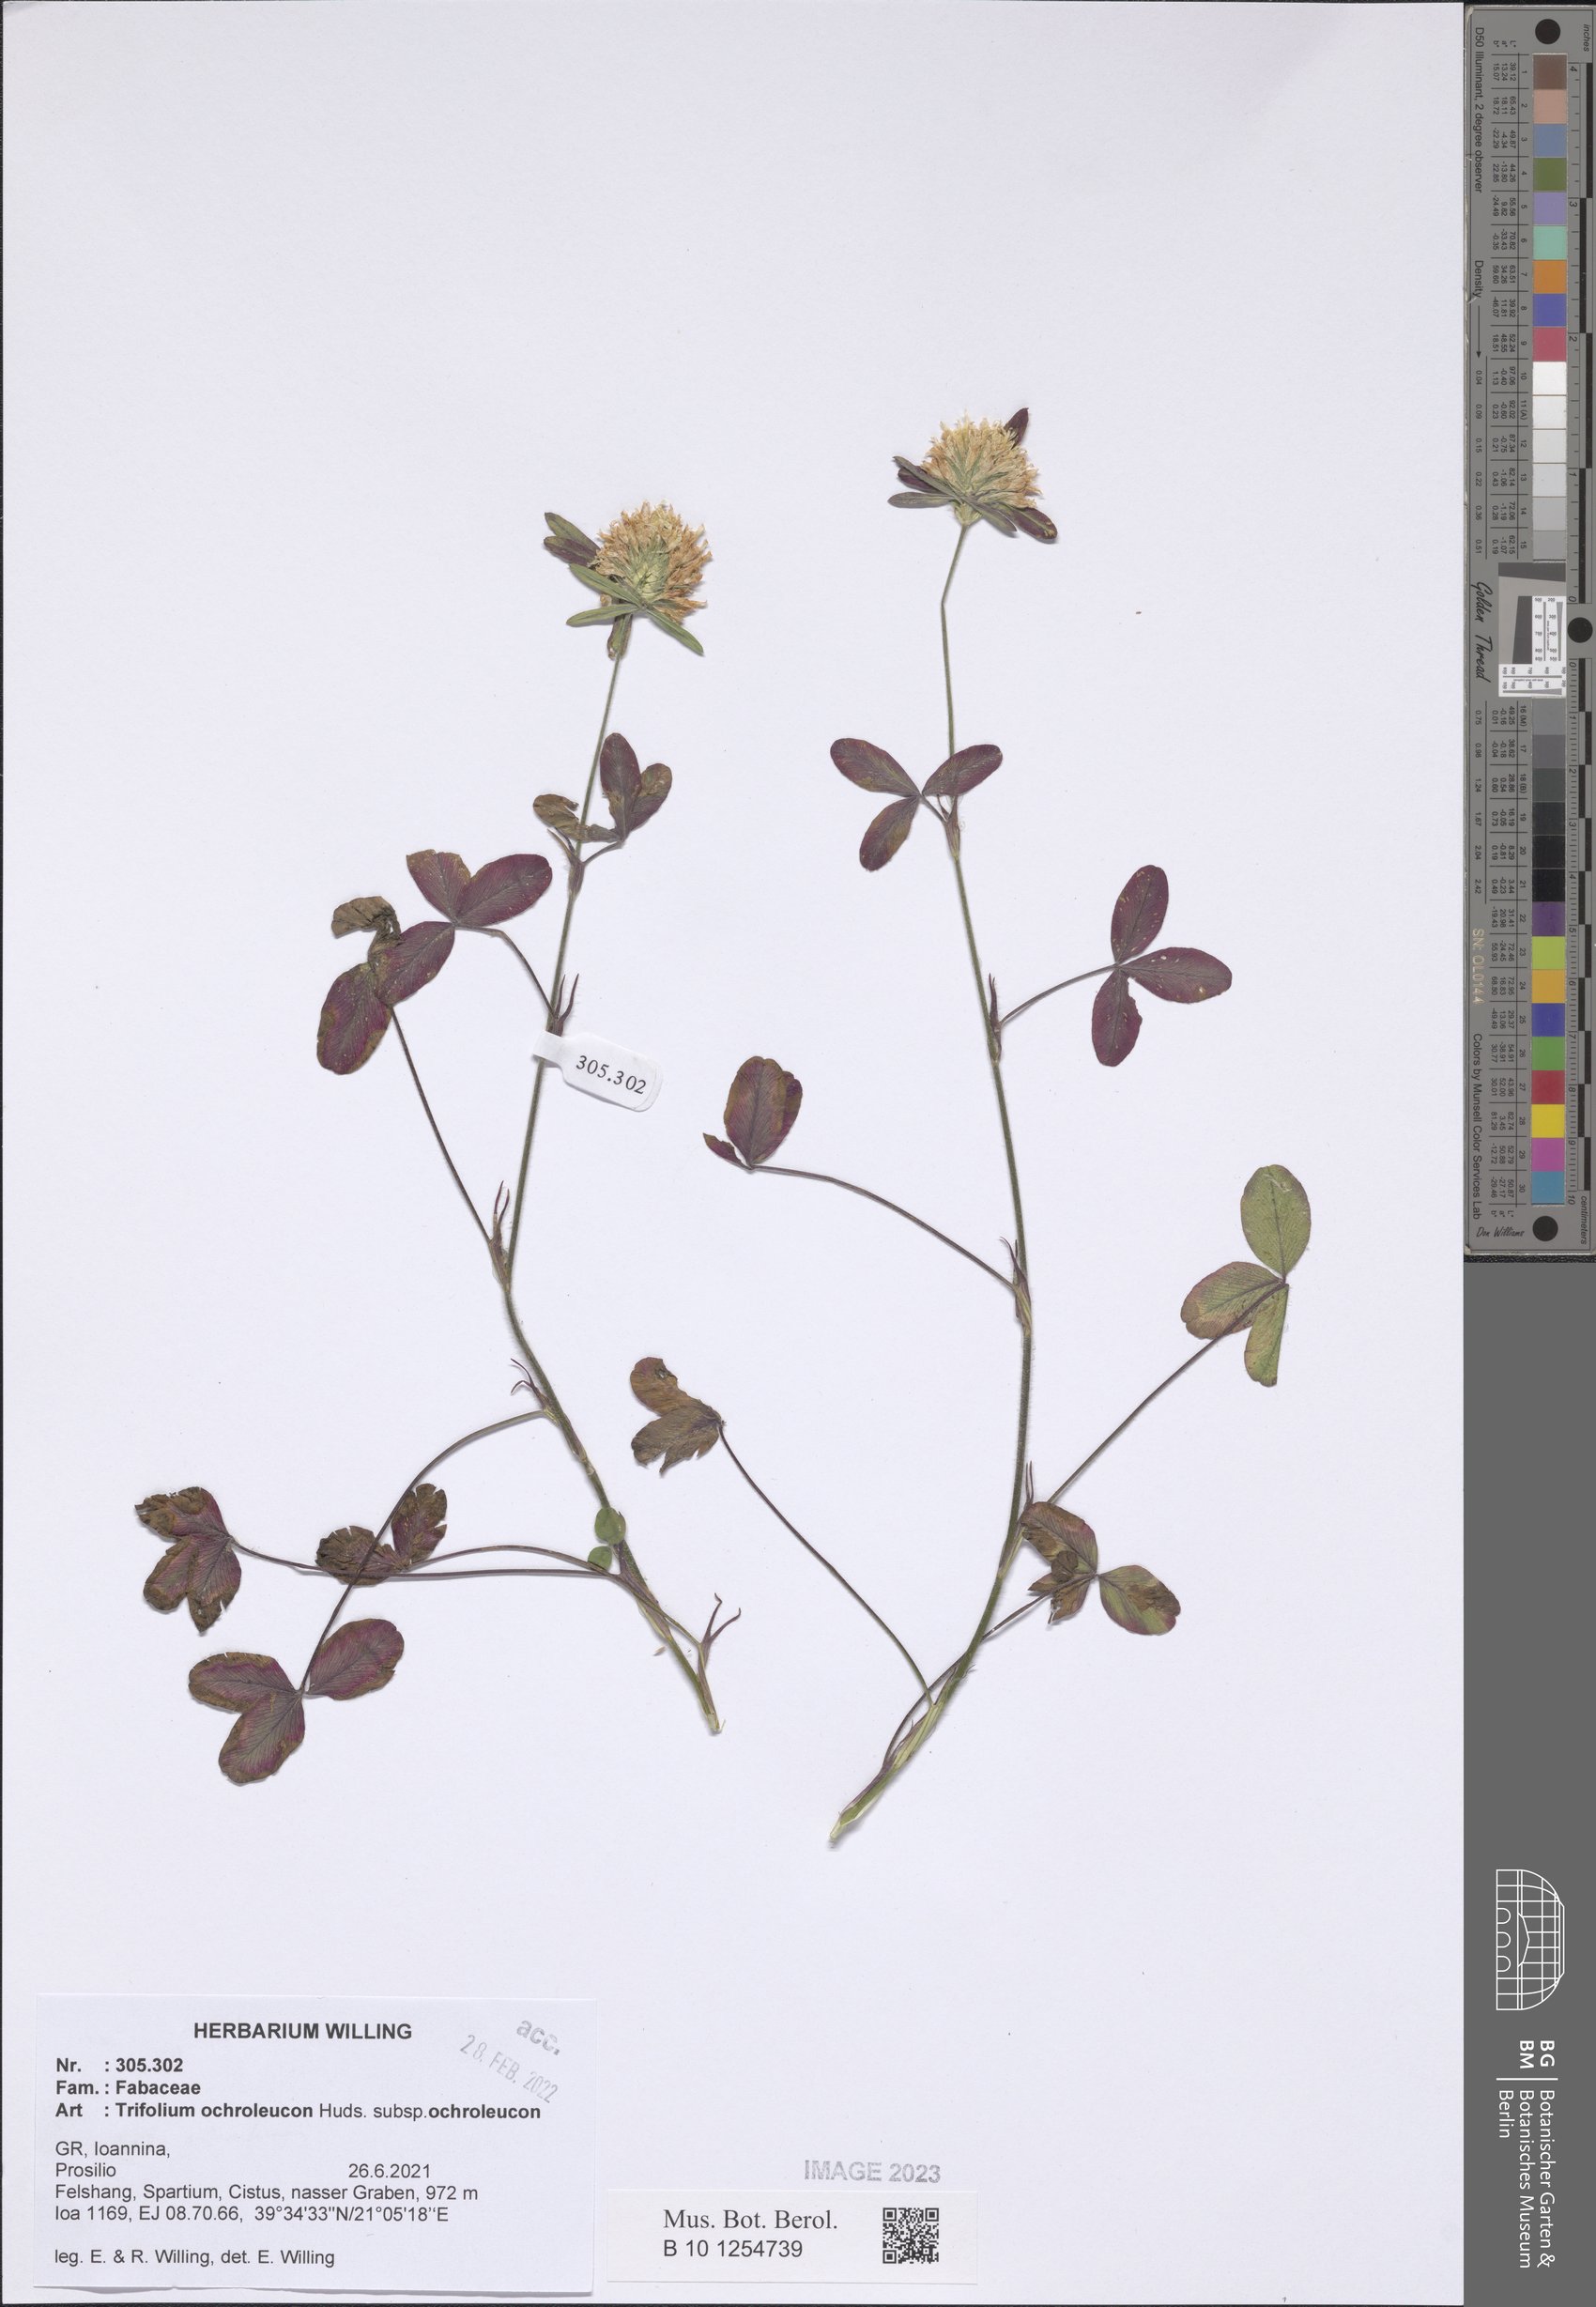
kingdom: Plantae
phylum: Tracheophyta
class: Magnoliopsida
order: Fabales
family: Fabaceae
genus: Trifolium
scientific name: Trifolium ochroleucon
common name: Sulphur clover
